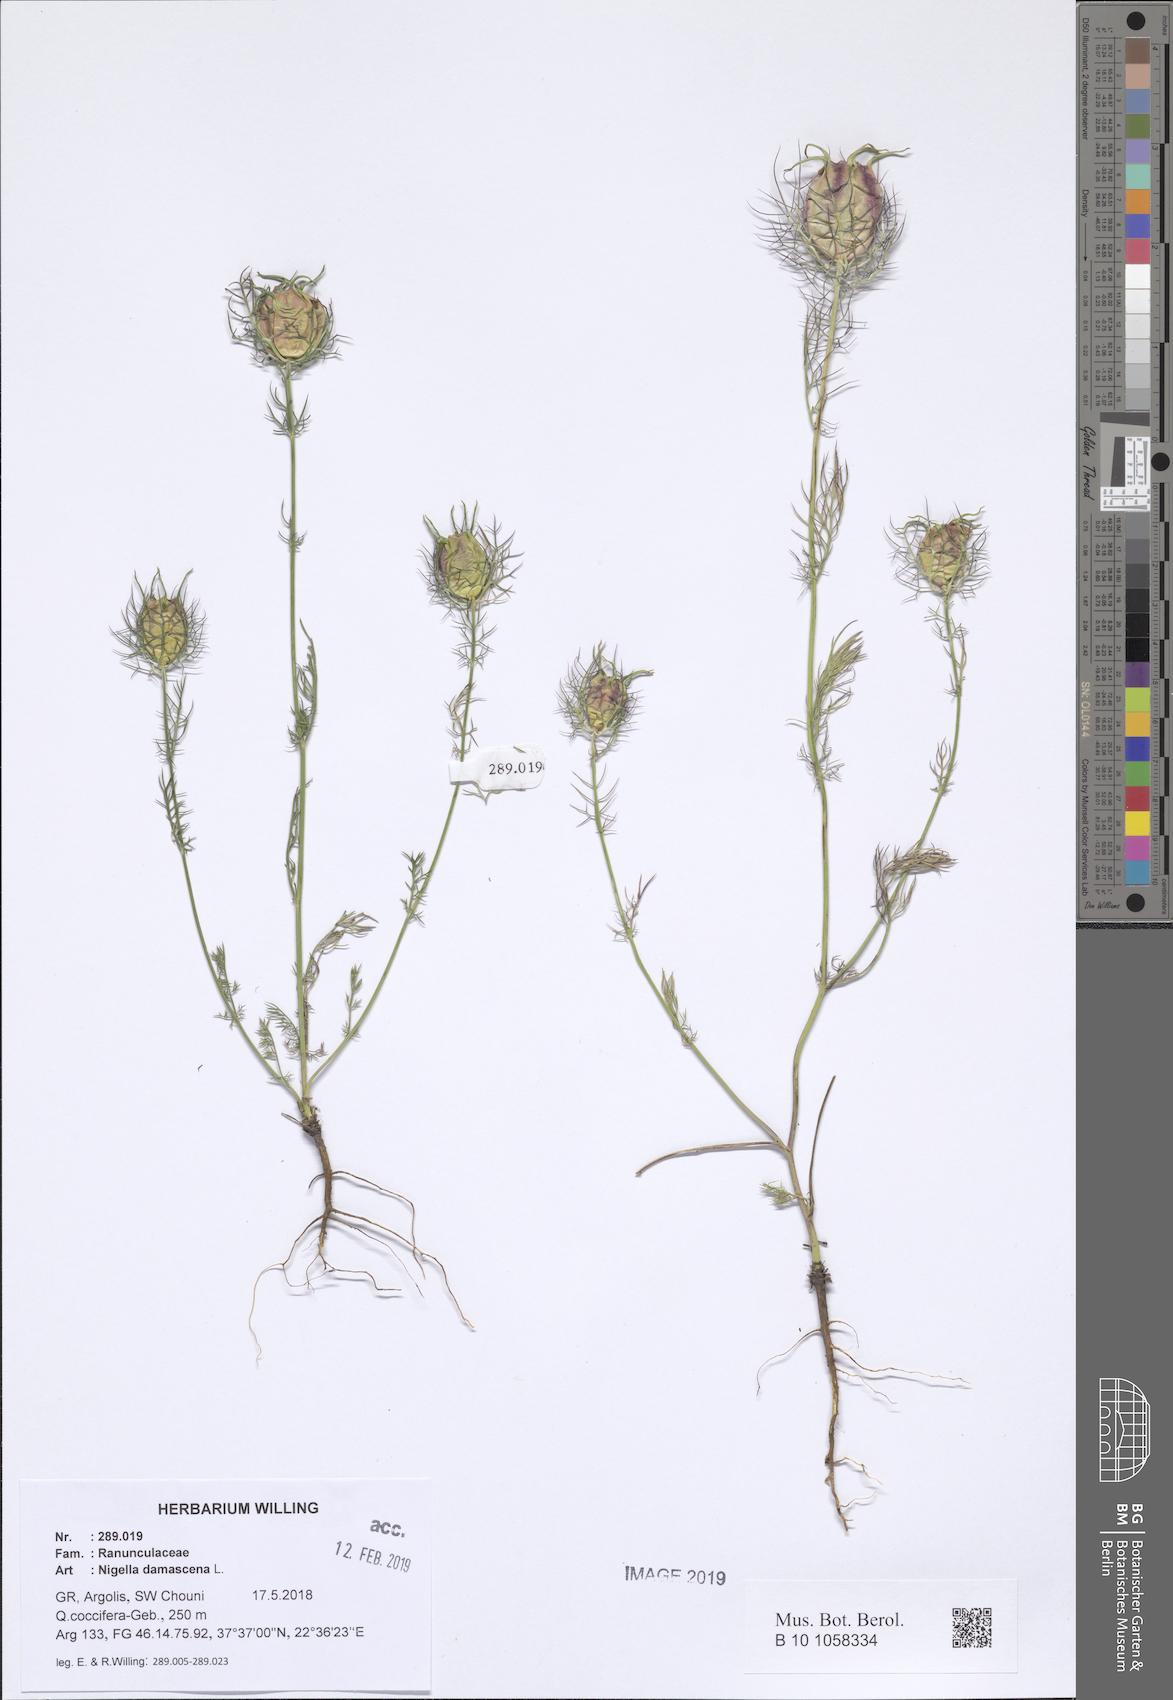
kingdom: Plantae
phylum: Tracheophyta
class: Magnoliopsida
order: Ranunculales
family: Ranunculaceae
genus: Nigella
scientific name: Nigella damascena
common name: Love-in-a-mist
